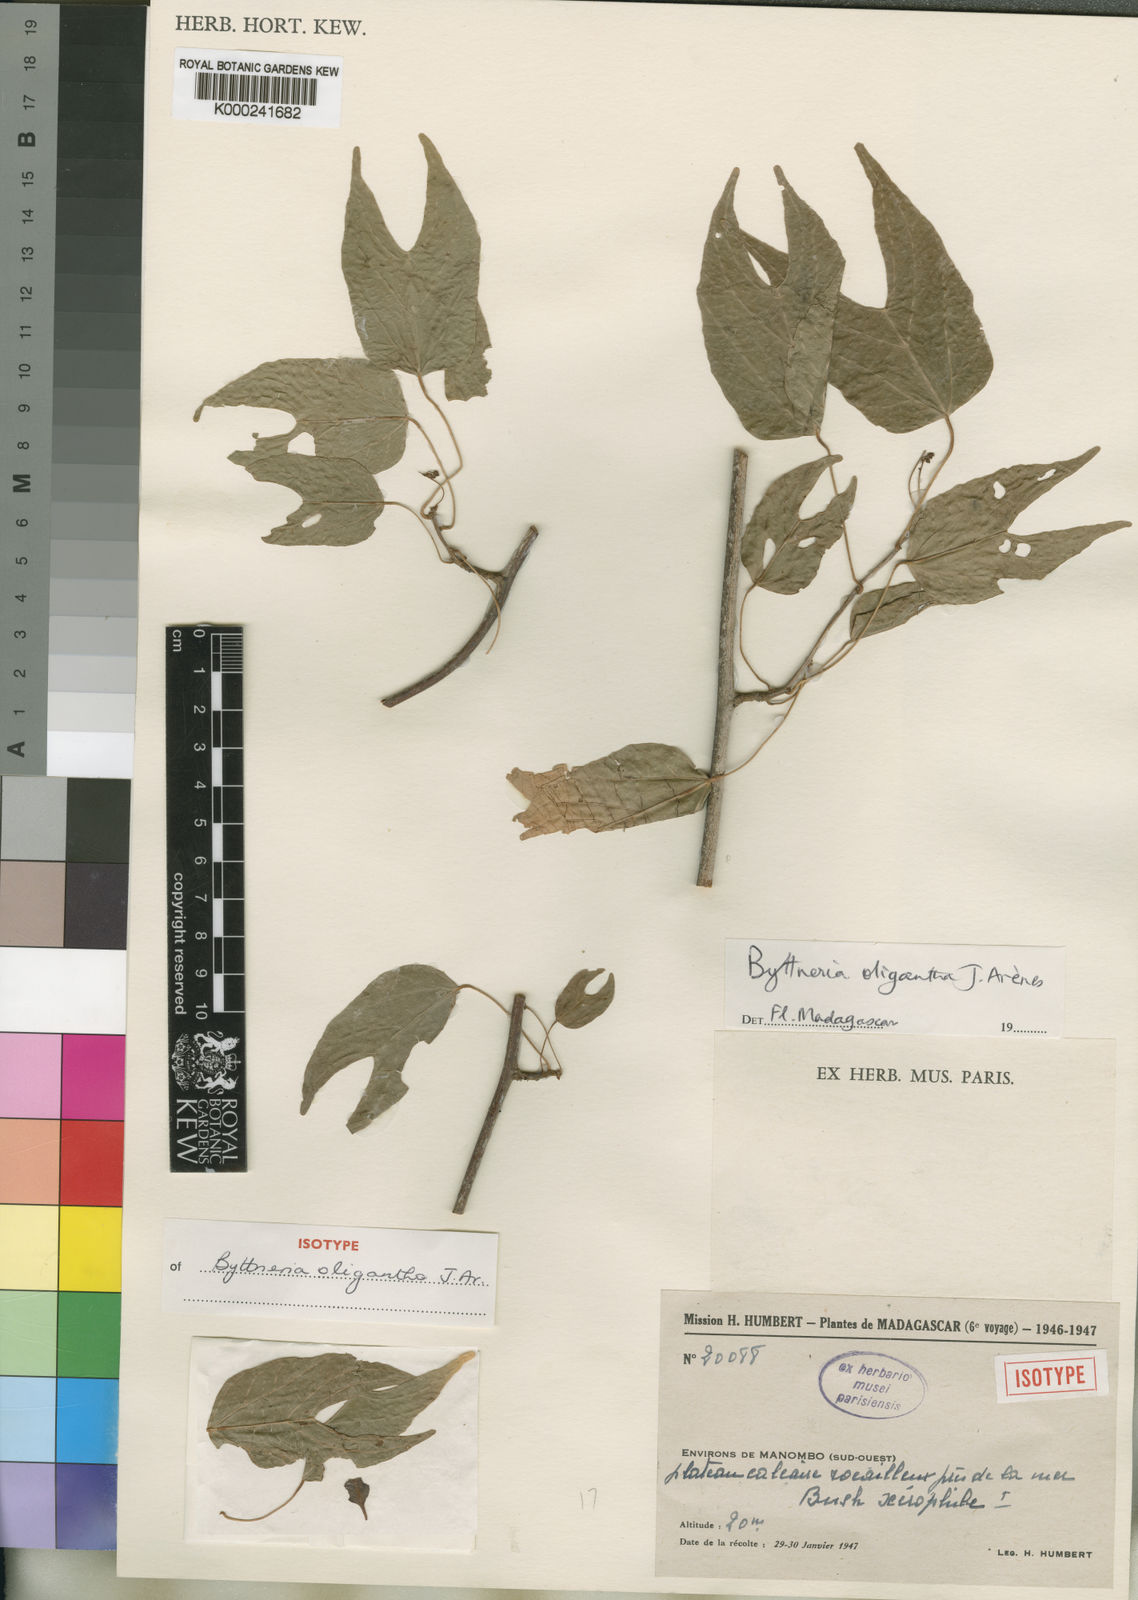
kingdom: Plantae
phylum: Tracheophyta
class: Magnoliopsida
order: Malvales
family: Malvaceae
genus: Byttneria
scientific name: Byttneria oligantha
